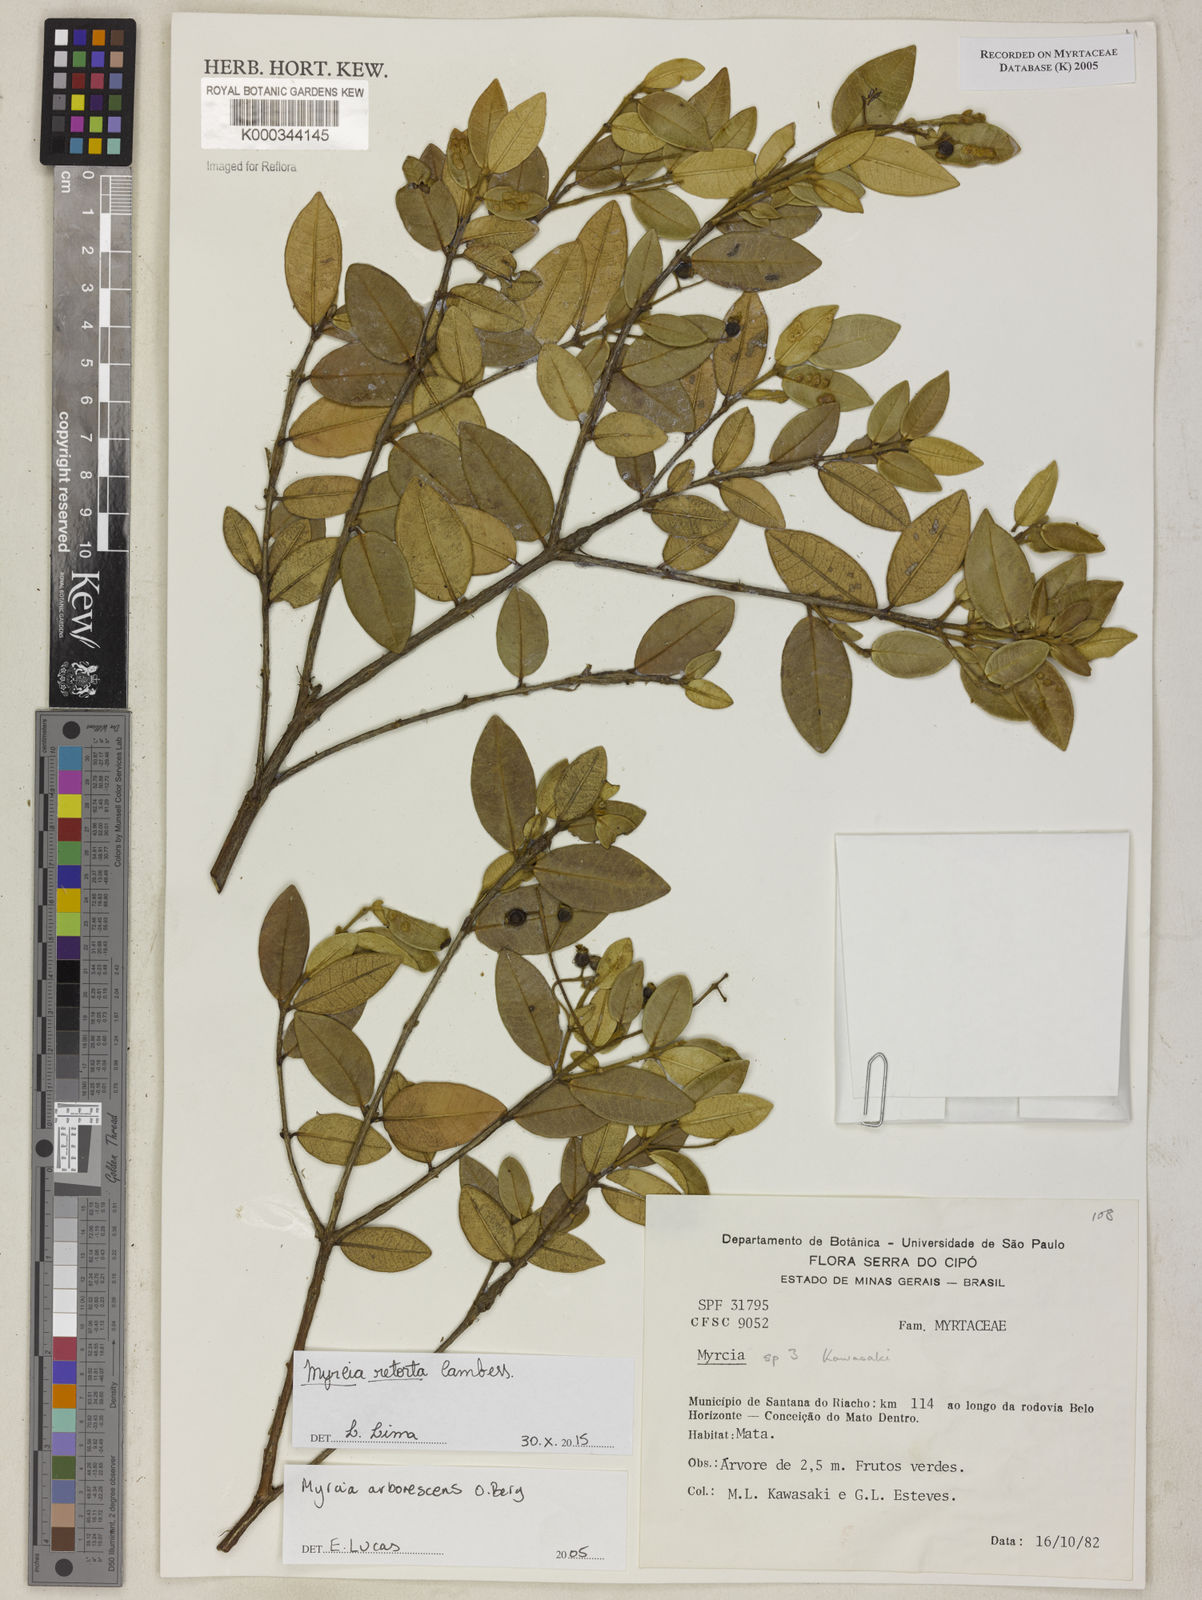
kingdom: Plantae
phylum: Tracheophyta
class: Magnoliopsida
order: Myrtales
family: Myrtaceae
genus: Myrcia
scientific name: Myrcia retorta
